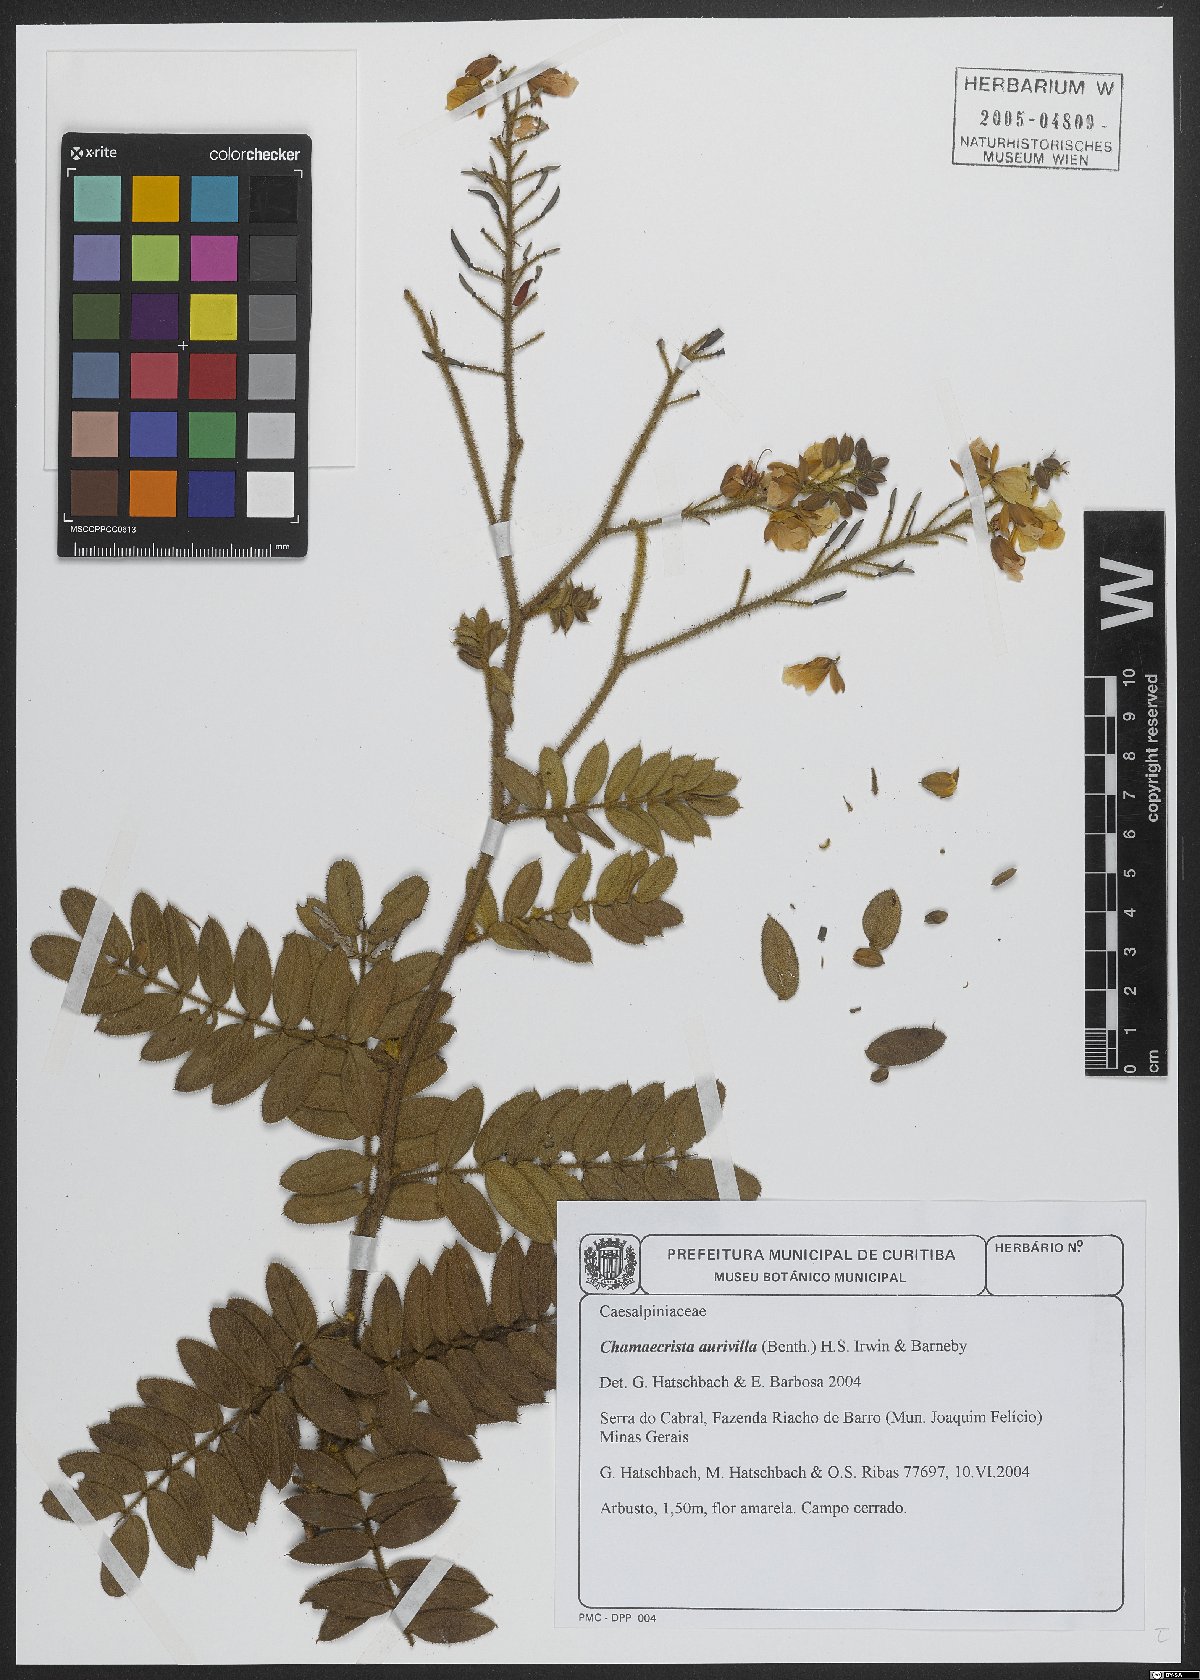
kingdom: Plantae
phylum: Tracheophyta
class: Magnoliopsida
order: Fabales
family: Fabaceae
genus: Chamaecrista
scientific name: Chamaecrista aurivilla
